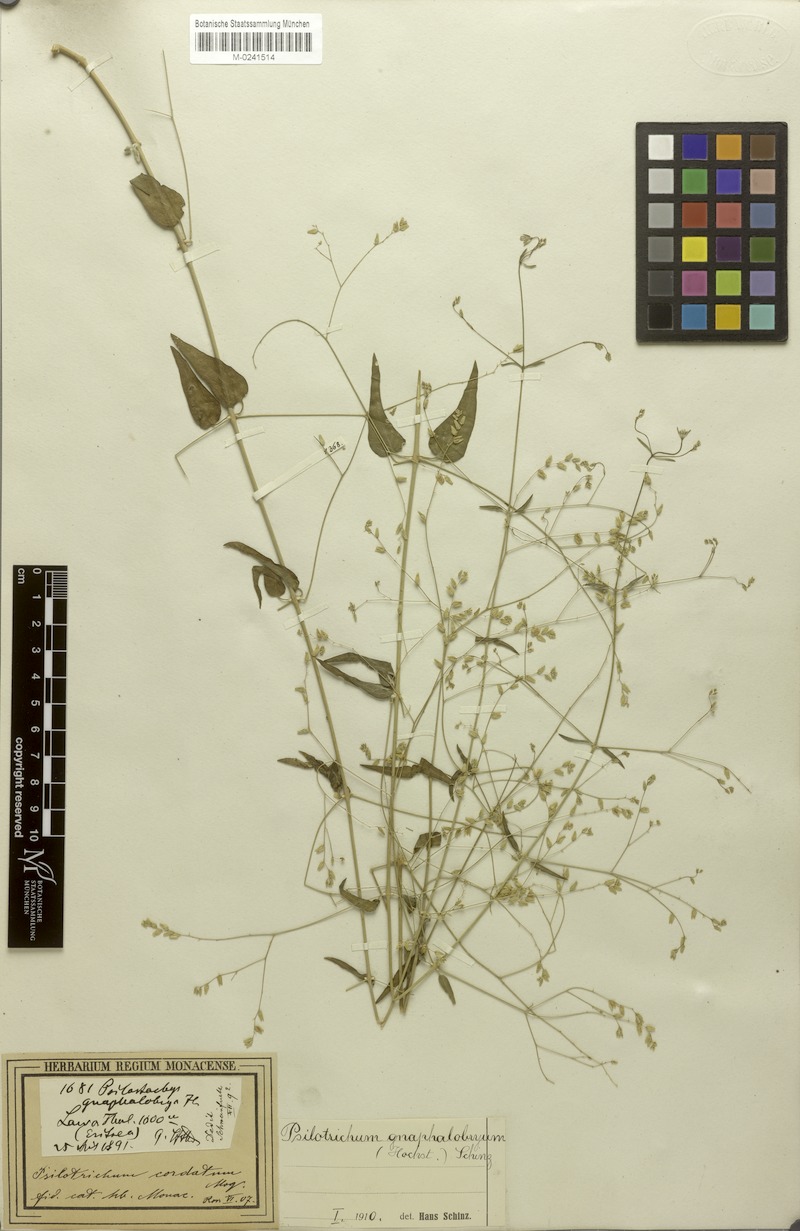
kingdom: Plantae
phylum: Tracheophyta
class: Magnoliopsida
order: Caryophyllales
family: Amaranthaceae
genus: Psilotrichum
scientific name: Psilotrichum gnaphalobryum
